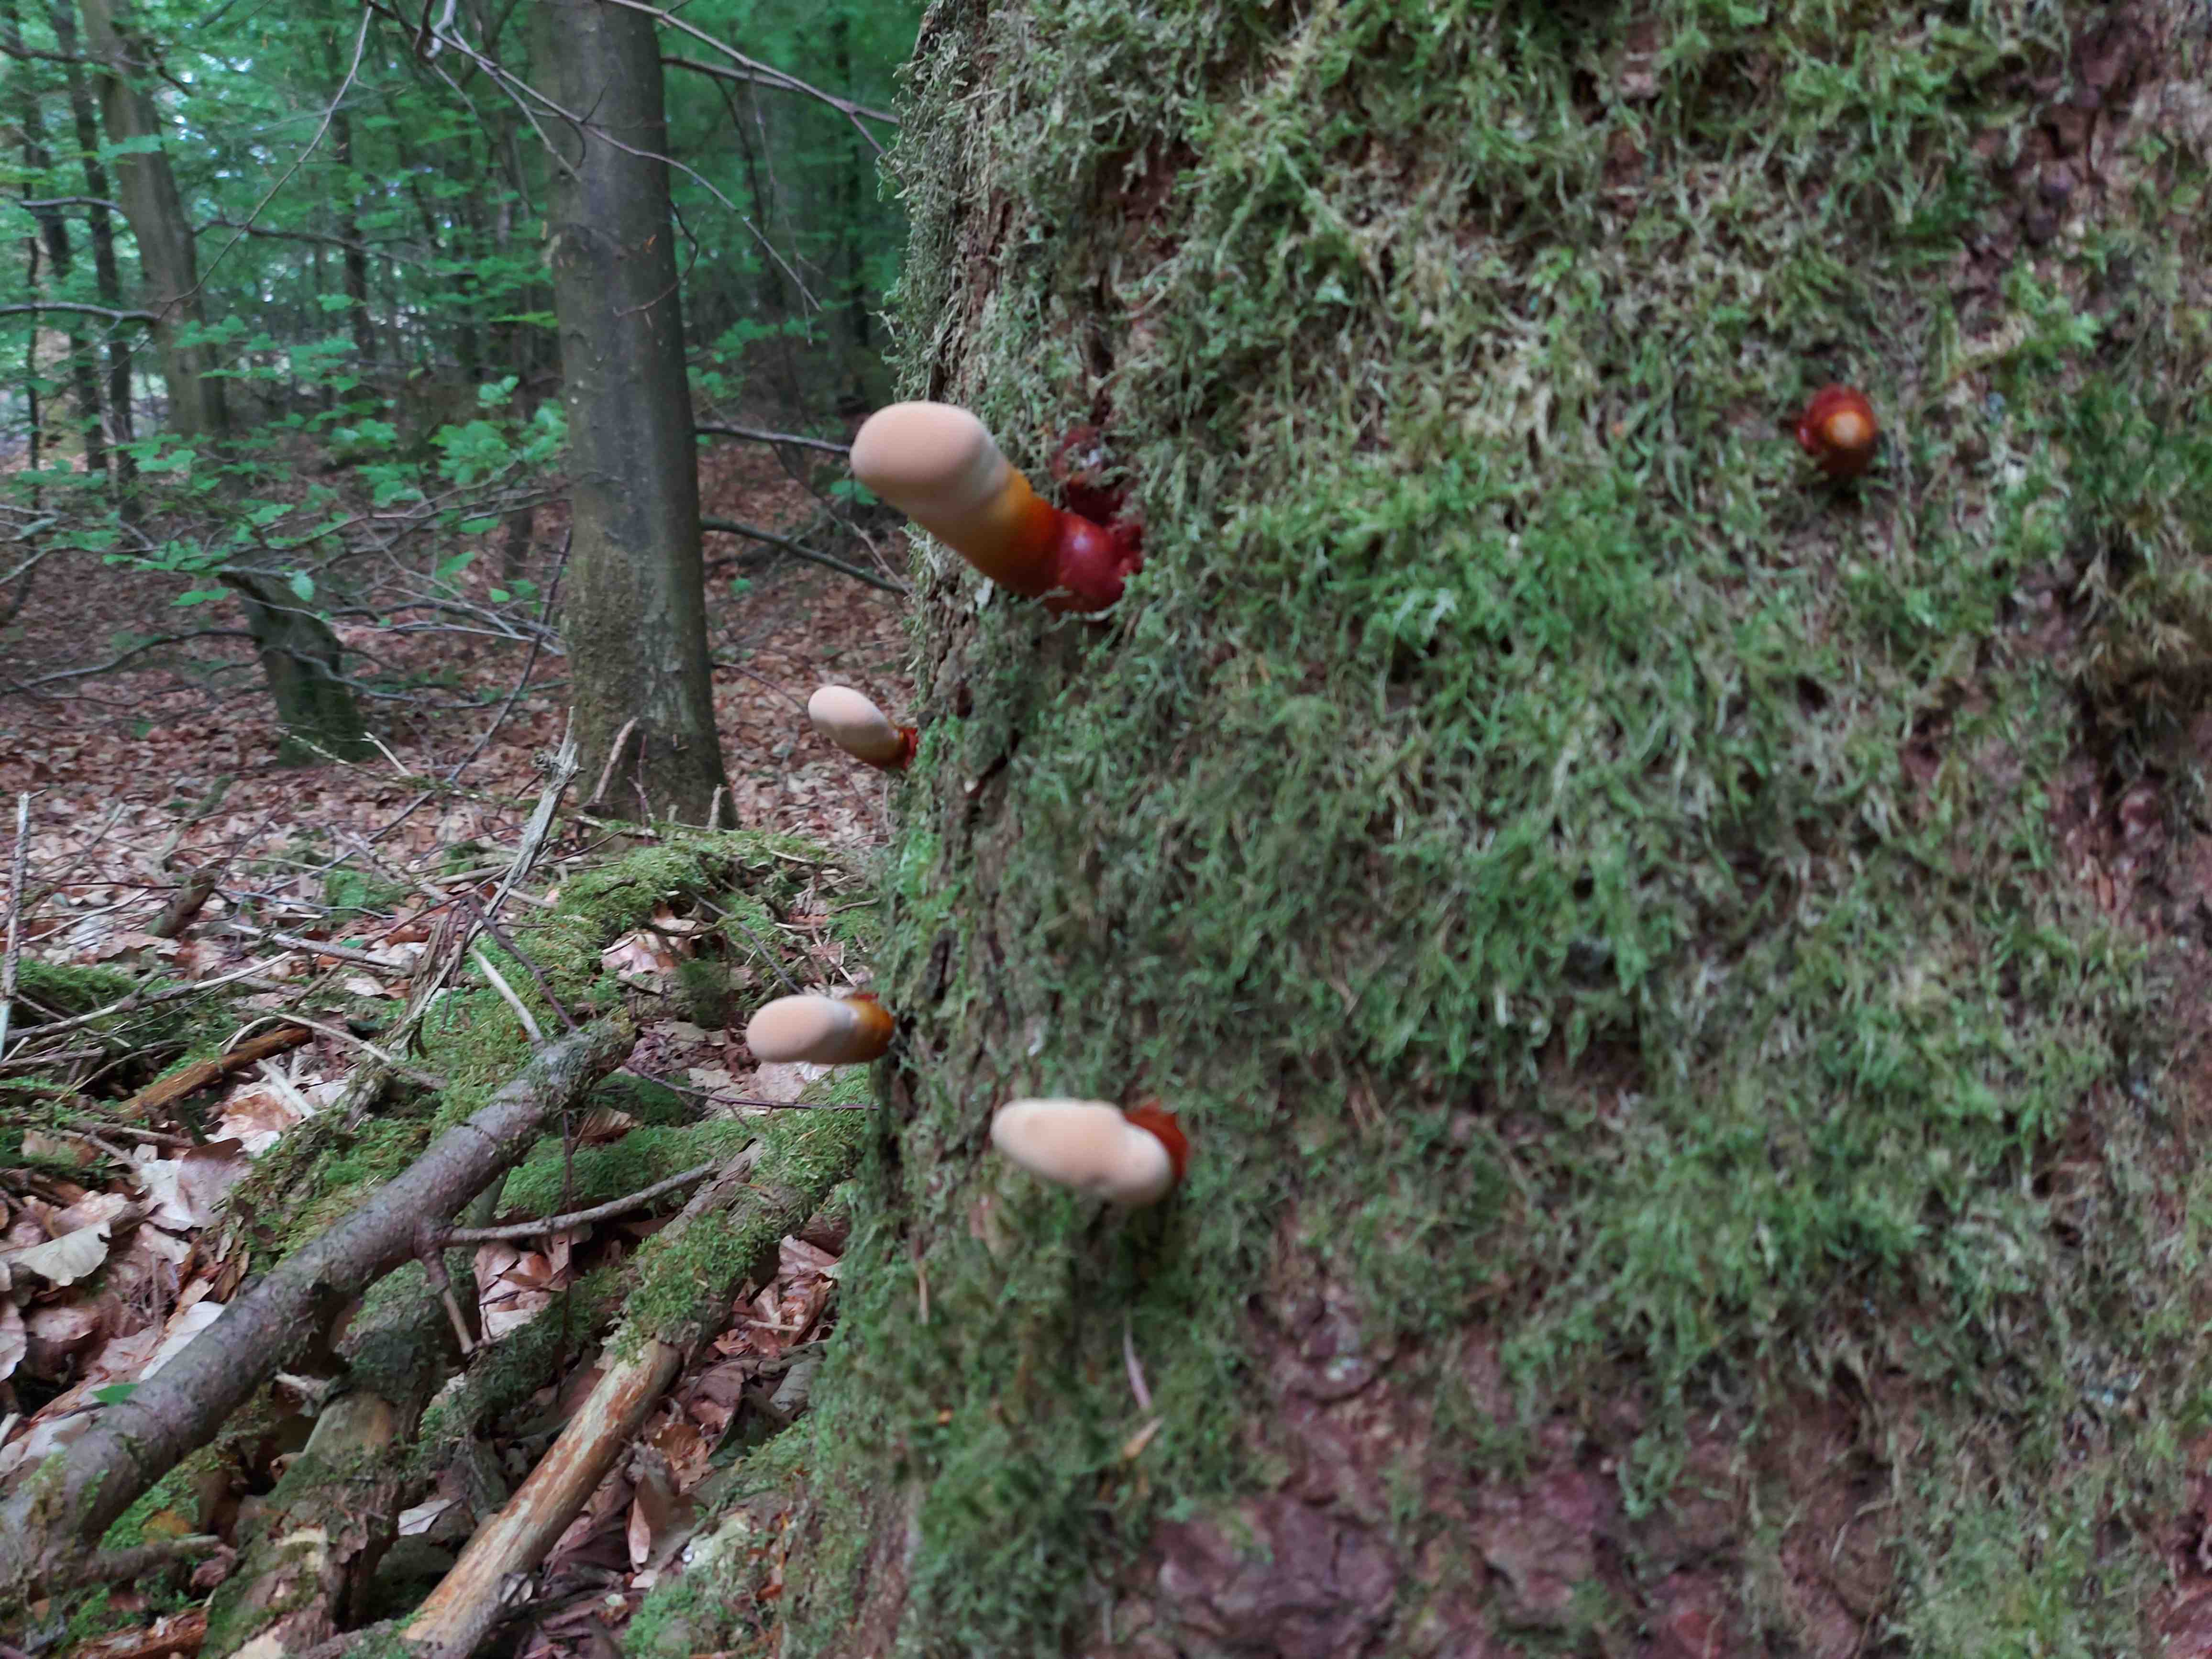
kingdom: Fungi
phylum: Basidiomycota
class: Agaricomycetes
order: Polyporales
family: Polyporaceae
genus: Ganoderma
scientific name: Ganoderma lucidum
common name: skinnende lakporesvamp
